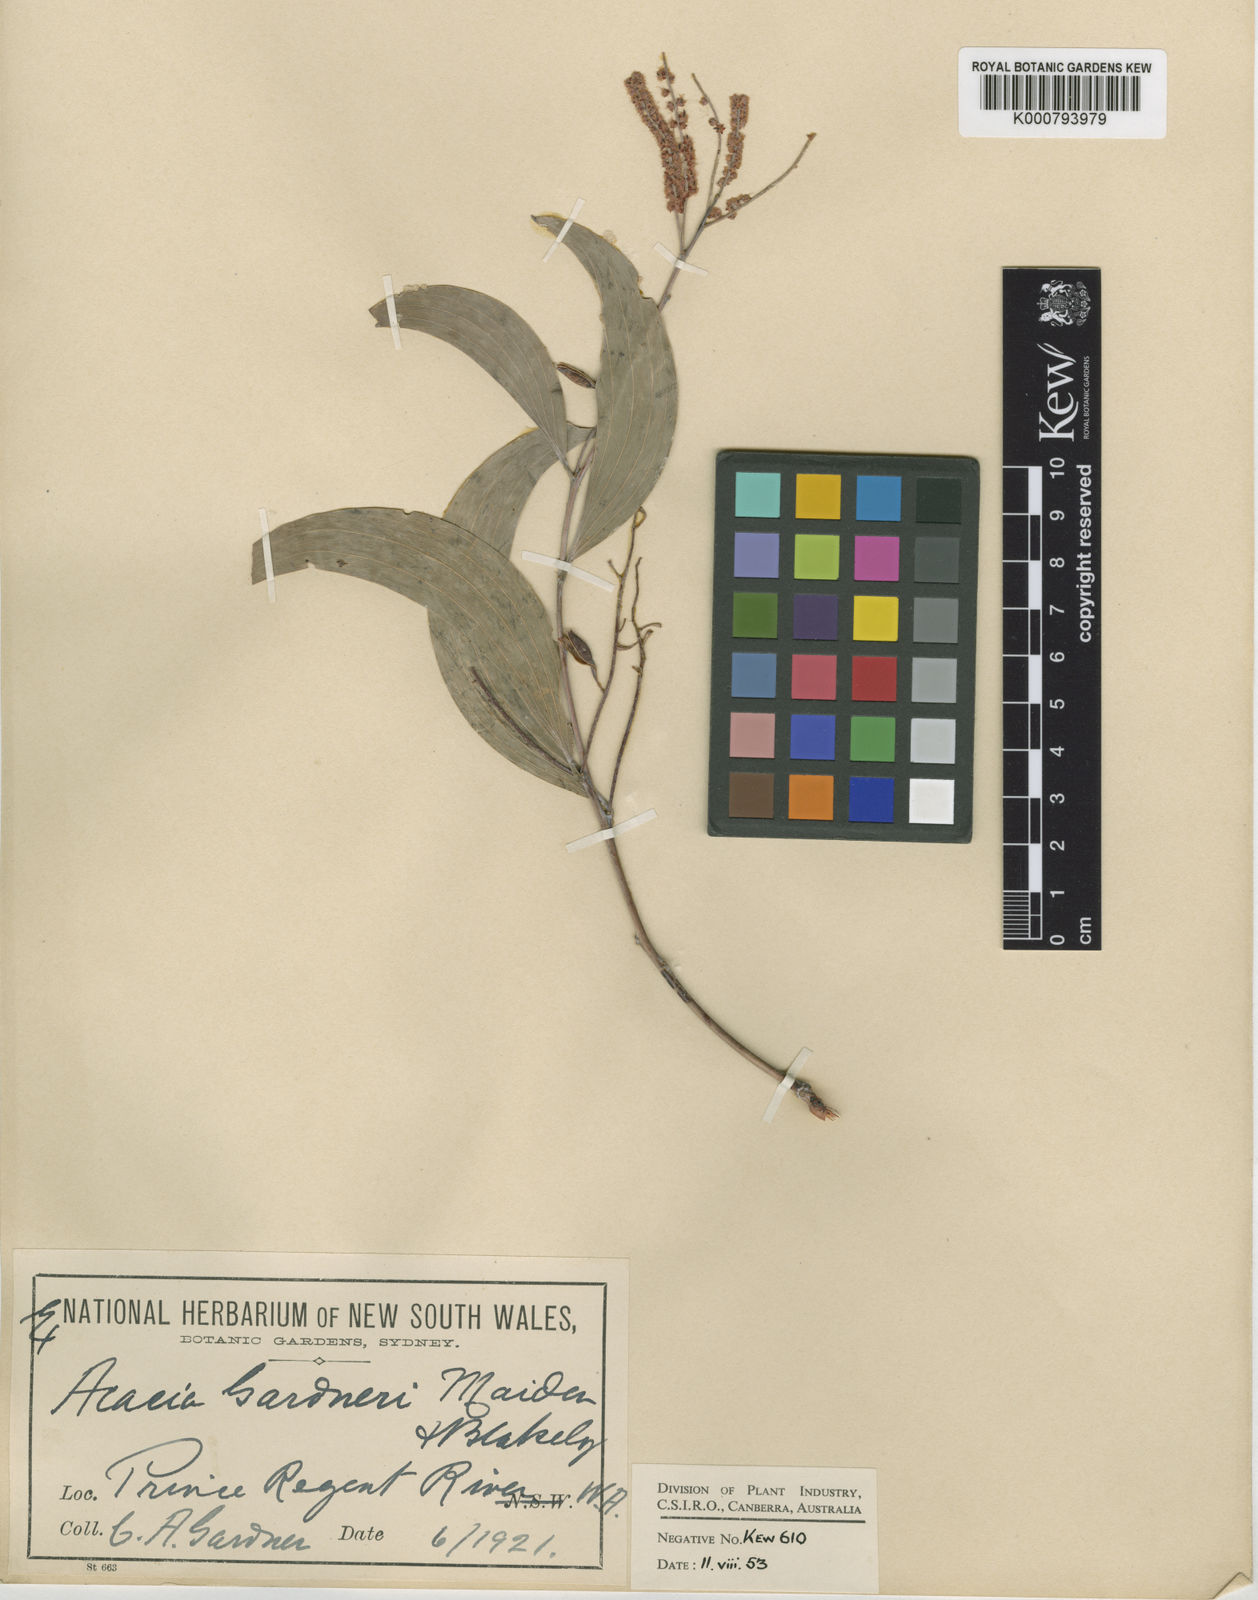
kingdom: Plantae
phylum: Tracheophyta
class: Magnoliopsida
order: Fabales
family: Fabaceae
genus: Acacia
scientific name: Acacia gardneri
